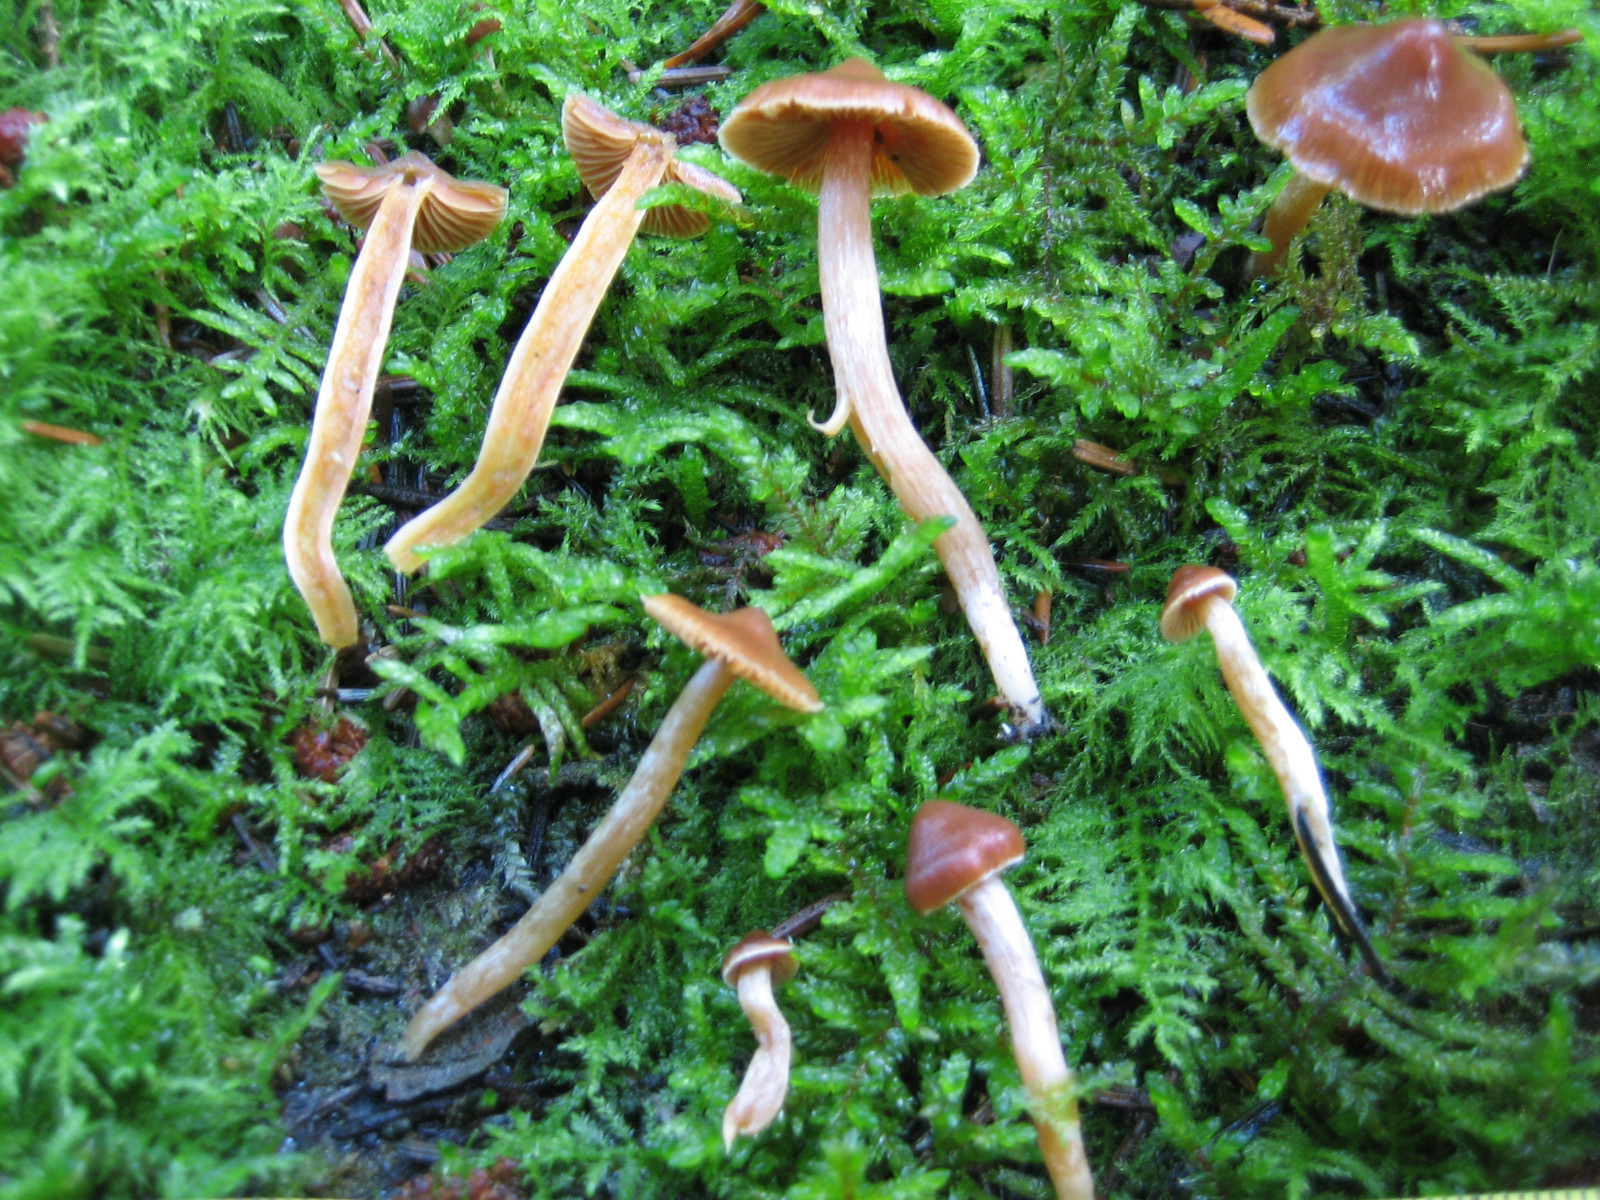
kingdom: Fungi
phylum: Basidiomycota
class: Agaricomycetes
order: Agaricales
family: Cortinariaceae
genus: Cortinarius
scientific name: Cortinarius aurae
